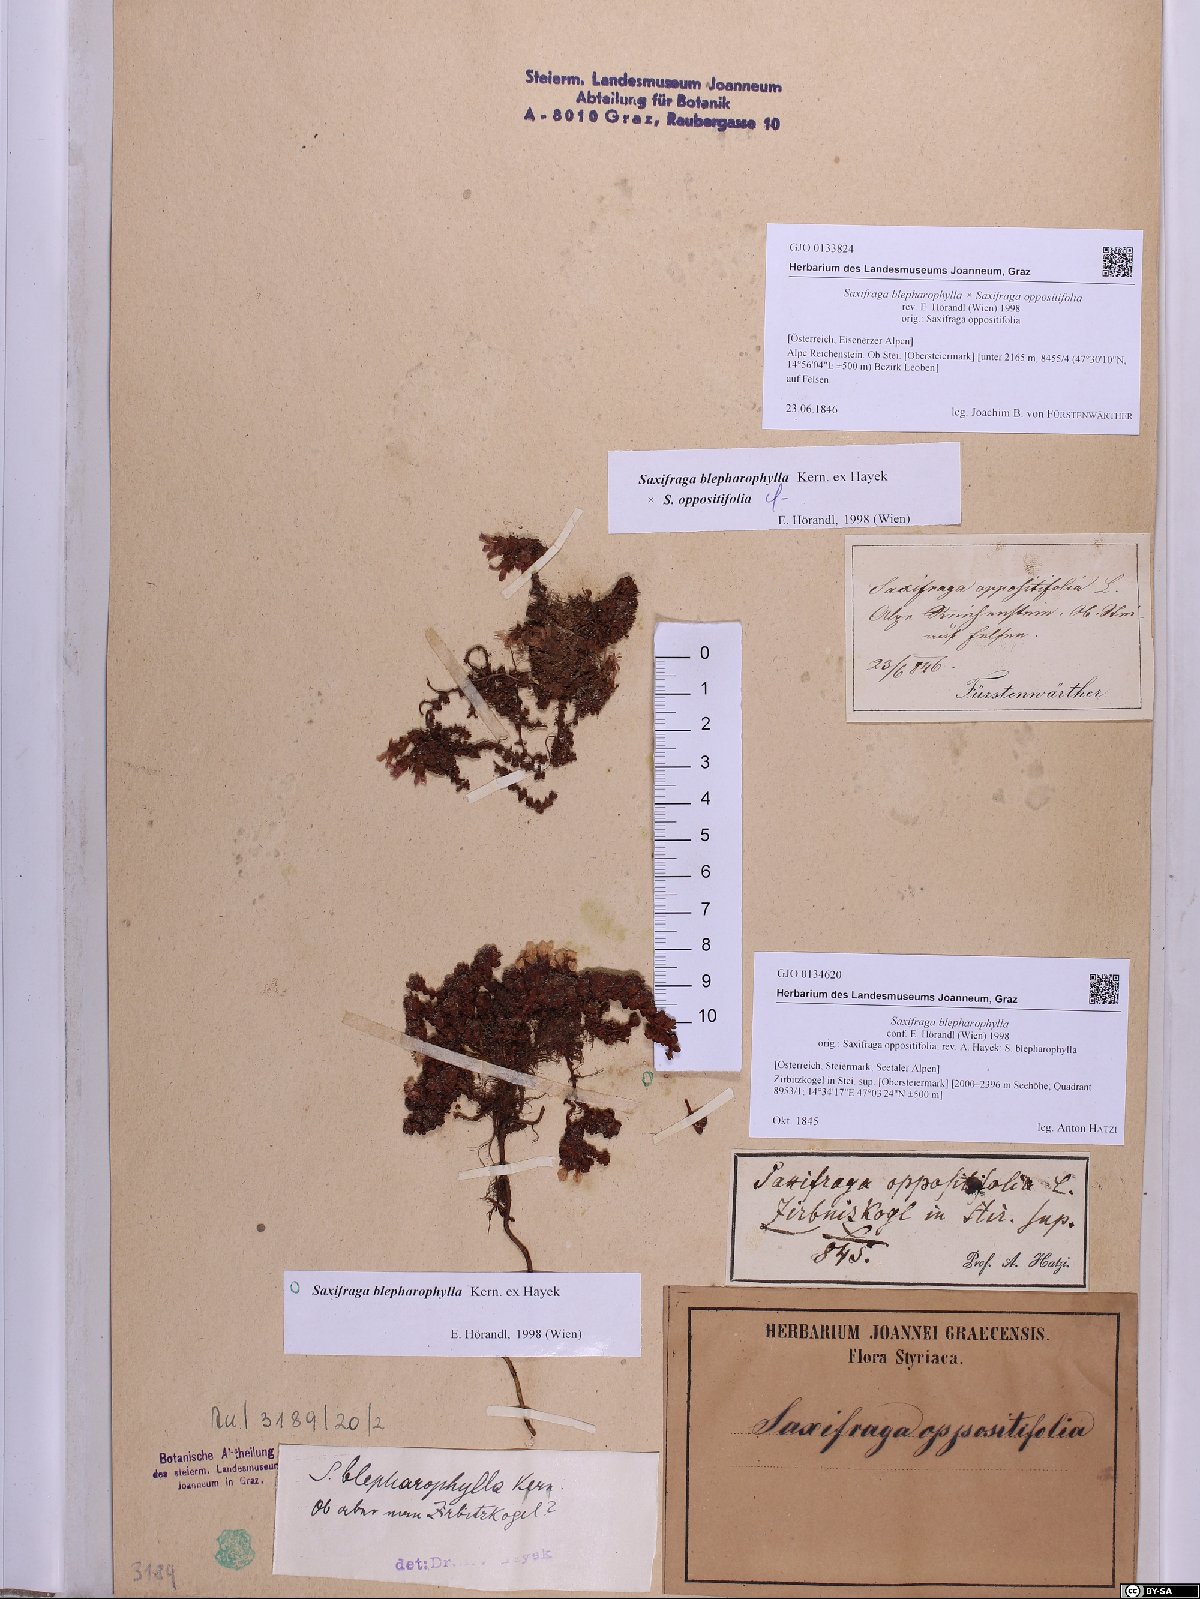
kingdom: Plantae
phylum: Tracheophyta
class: Magnoliopsida
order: Saxifragales
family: Saxifragaceae
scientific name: Saxifragaceae
